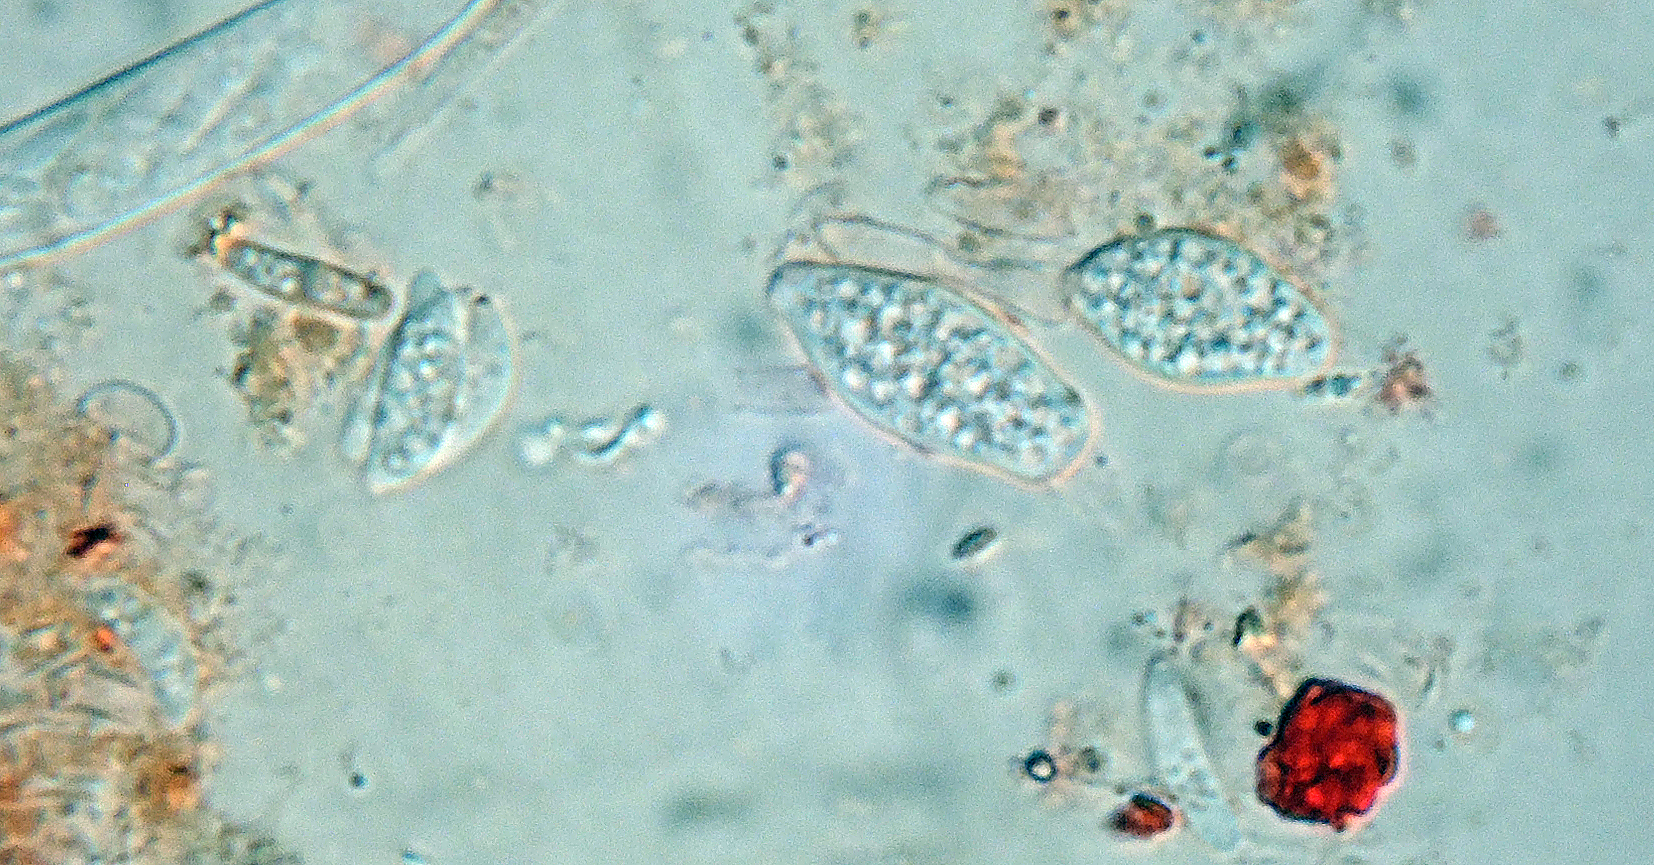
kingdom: Fungi
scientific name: Fungi
